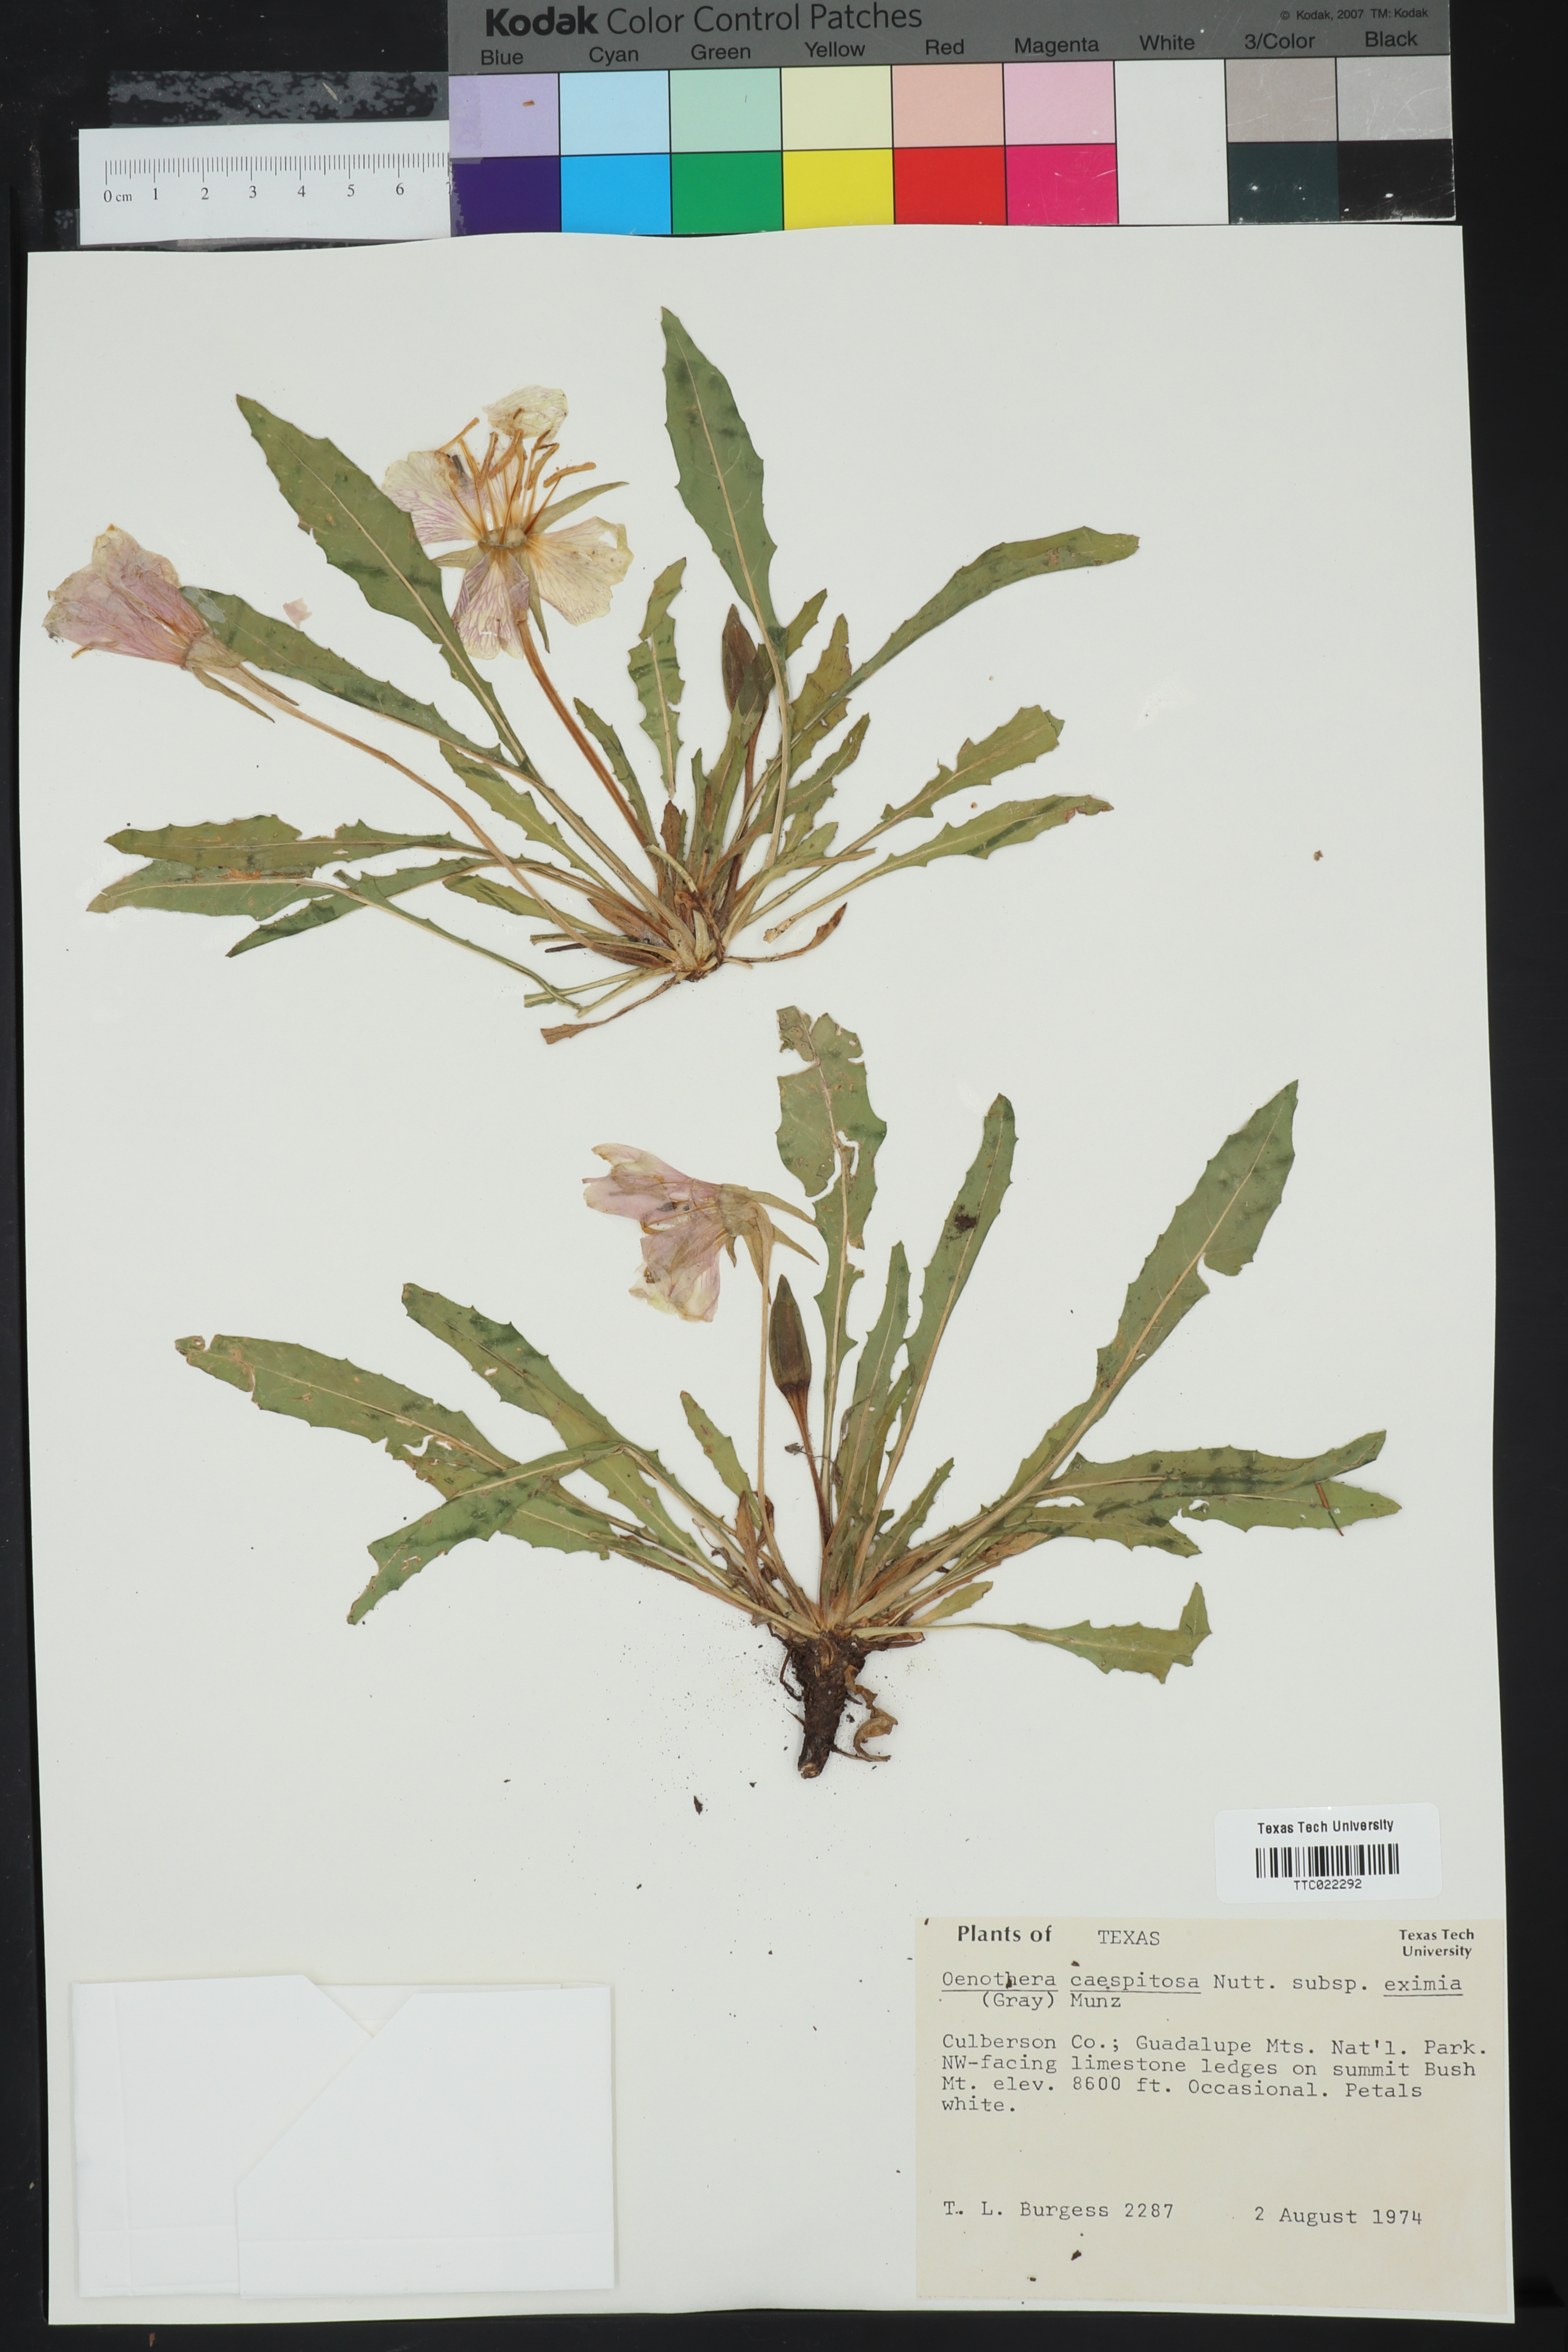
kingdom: Plantae
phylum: Tracheophyta
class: Magnoliopsida
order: Myrtales
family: Onagraceae
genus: Oenothera
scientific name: Oenothera cespitosa
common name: Tufted evening-primrose
